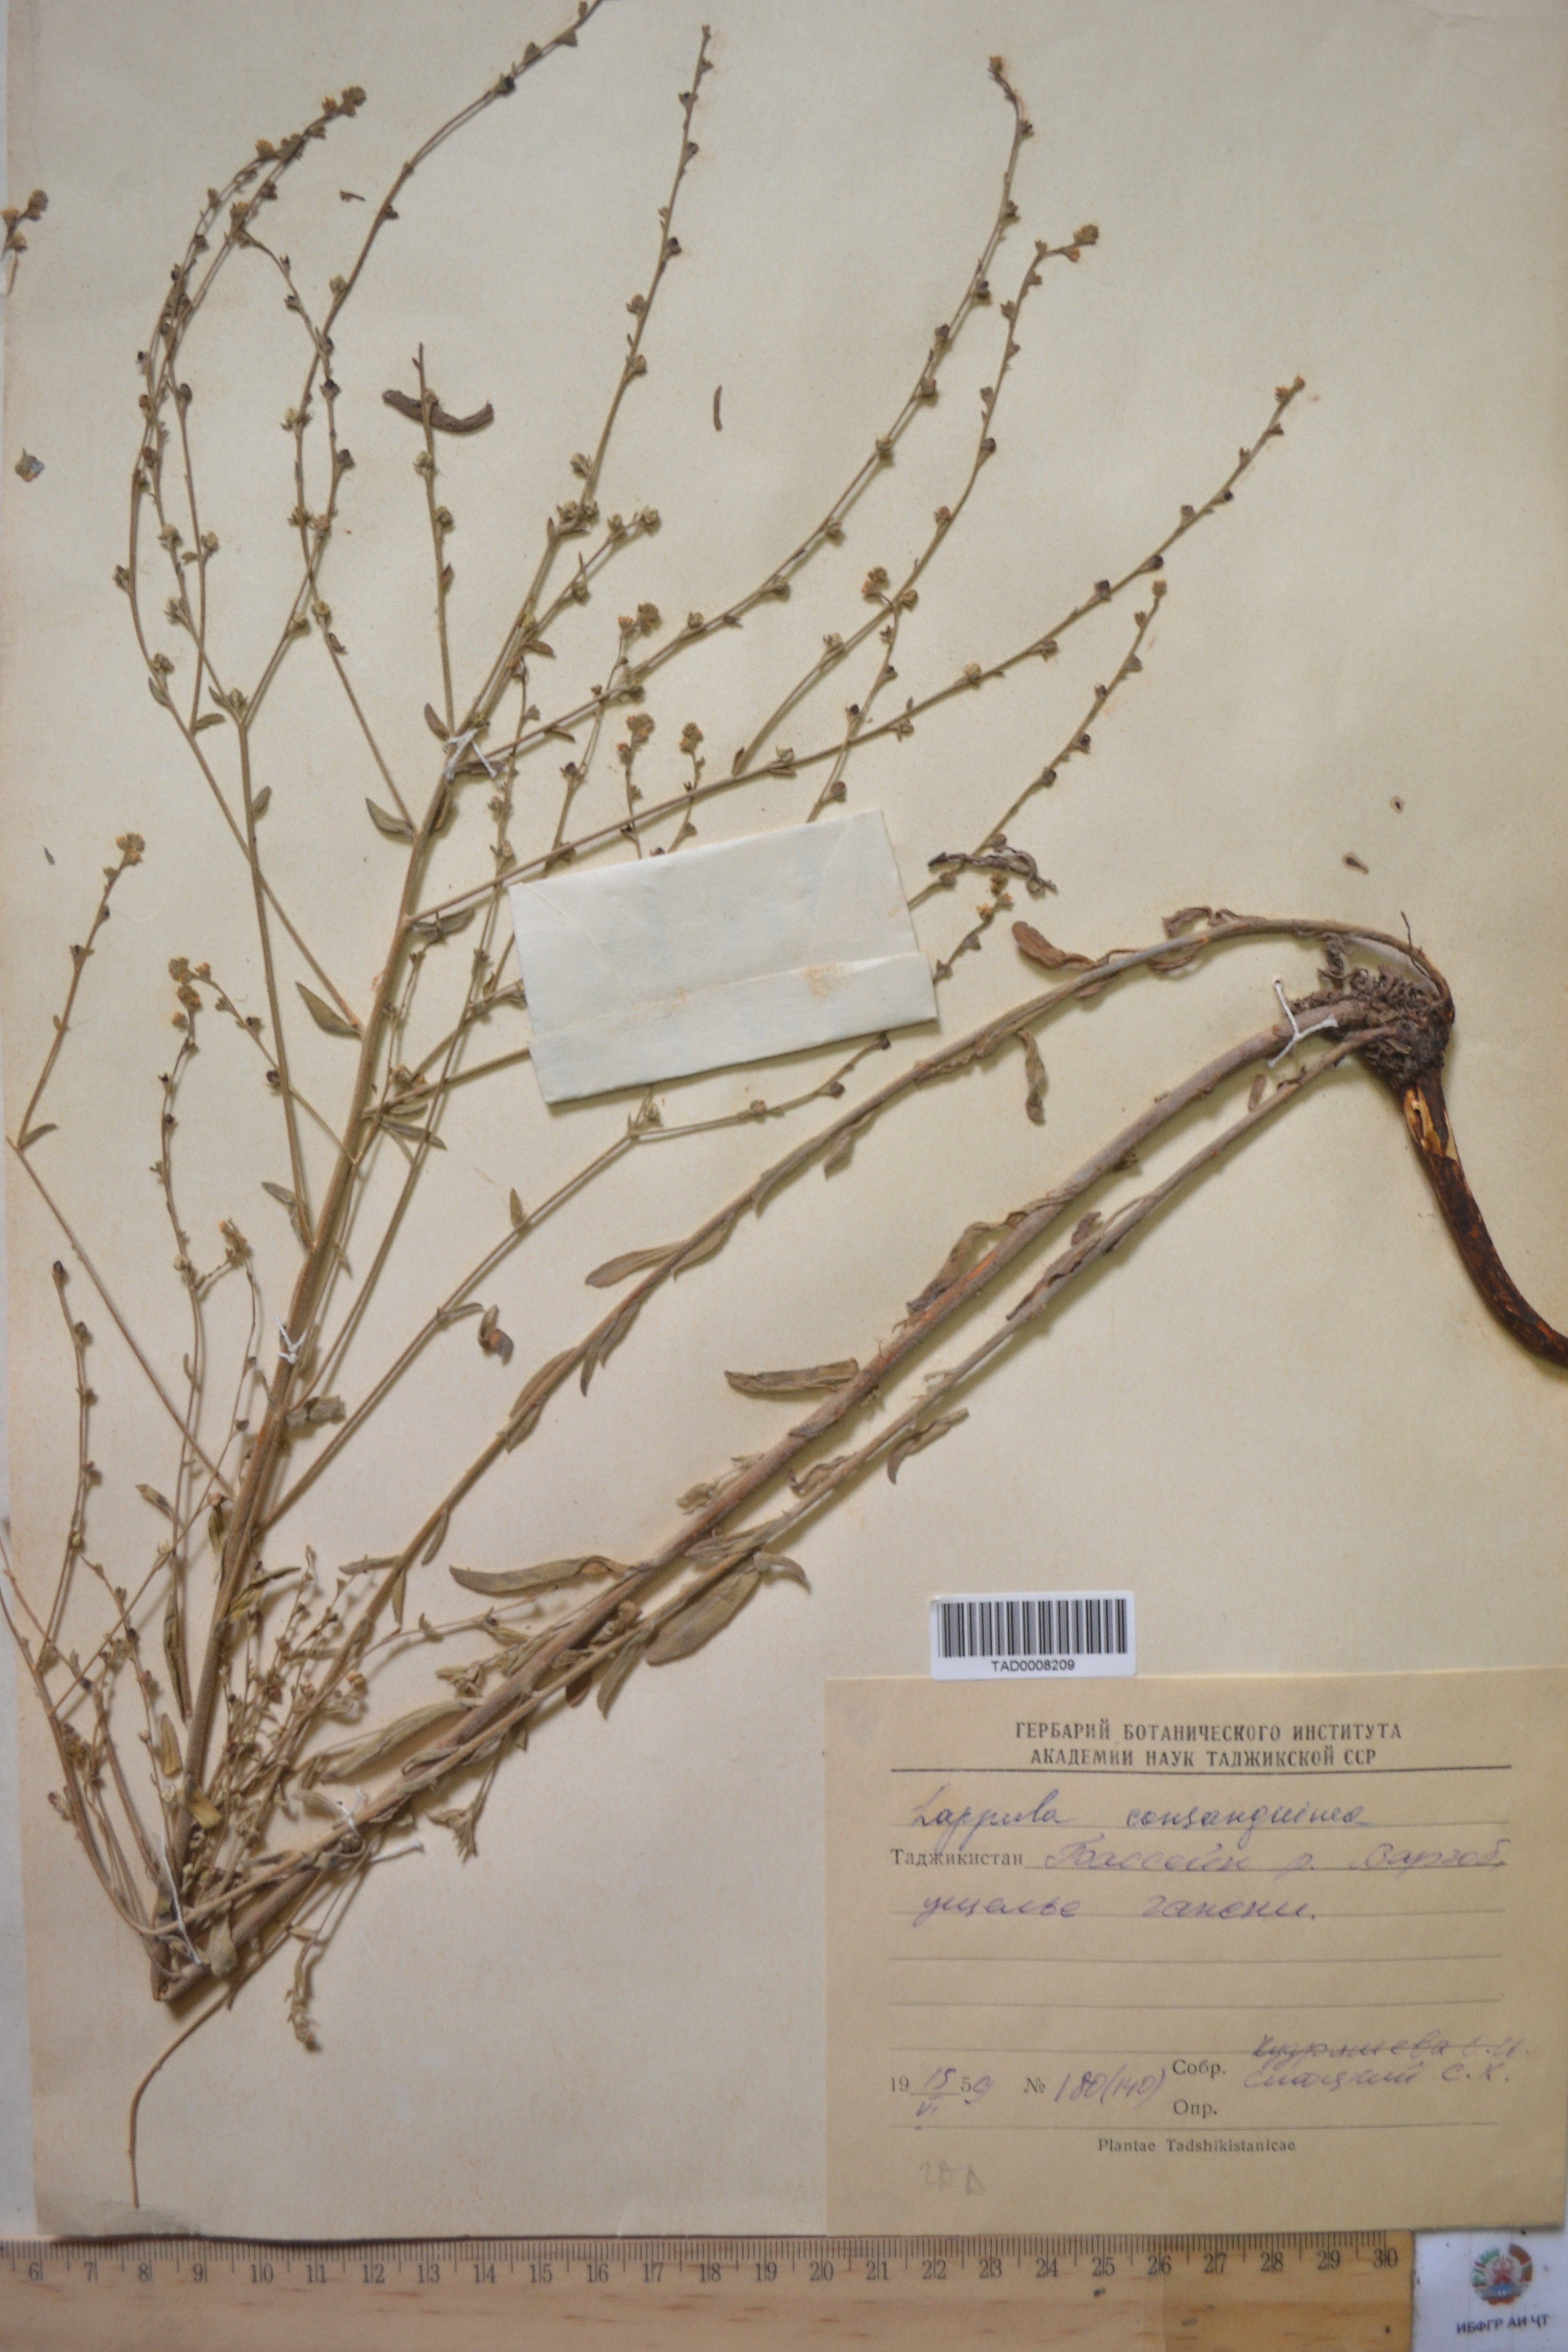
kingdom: Plantae
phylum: Tracheophyta
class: Magnoliopsida
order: Boraginales
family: Boraginaceae
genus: Lappula
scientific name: Lappula squarrosa
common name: European stickseed
